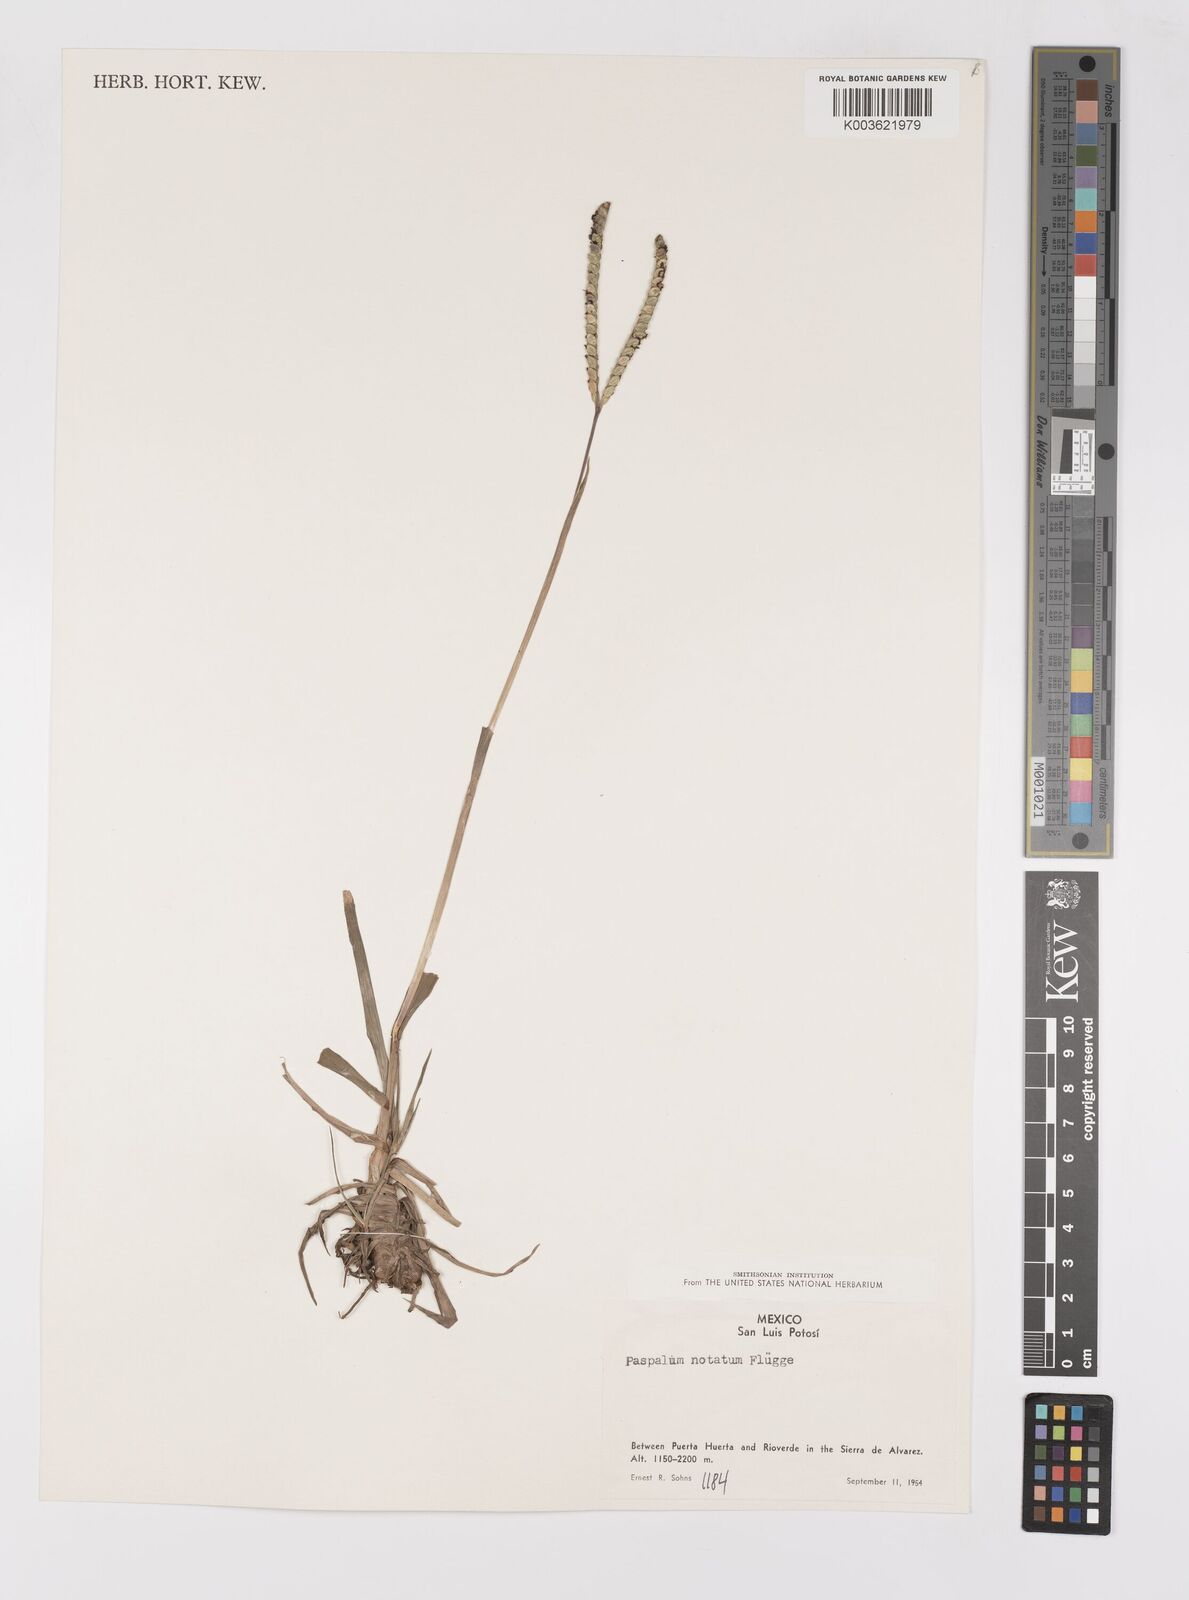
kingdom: Plantae
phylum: Tracheophyta
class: Liliopsida
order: Poales
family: Poaceae
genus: Paspalum
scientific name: Paspalum notatum
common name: Bahiagrass
